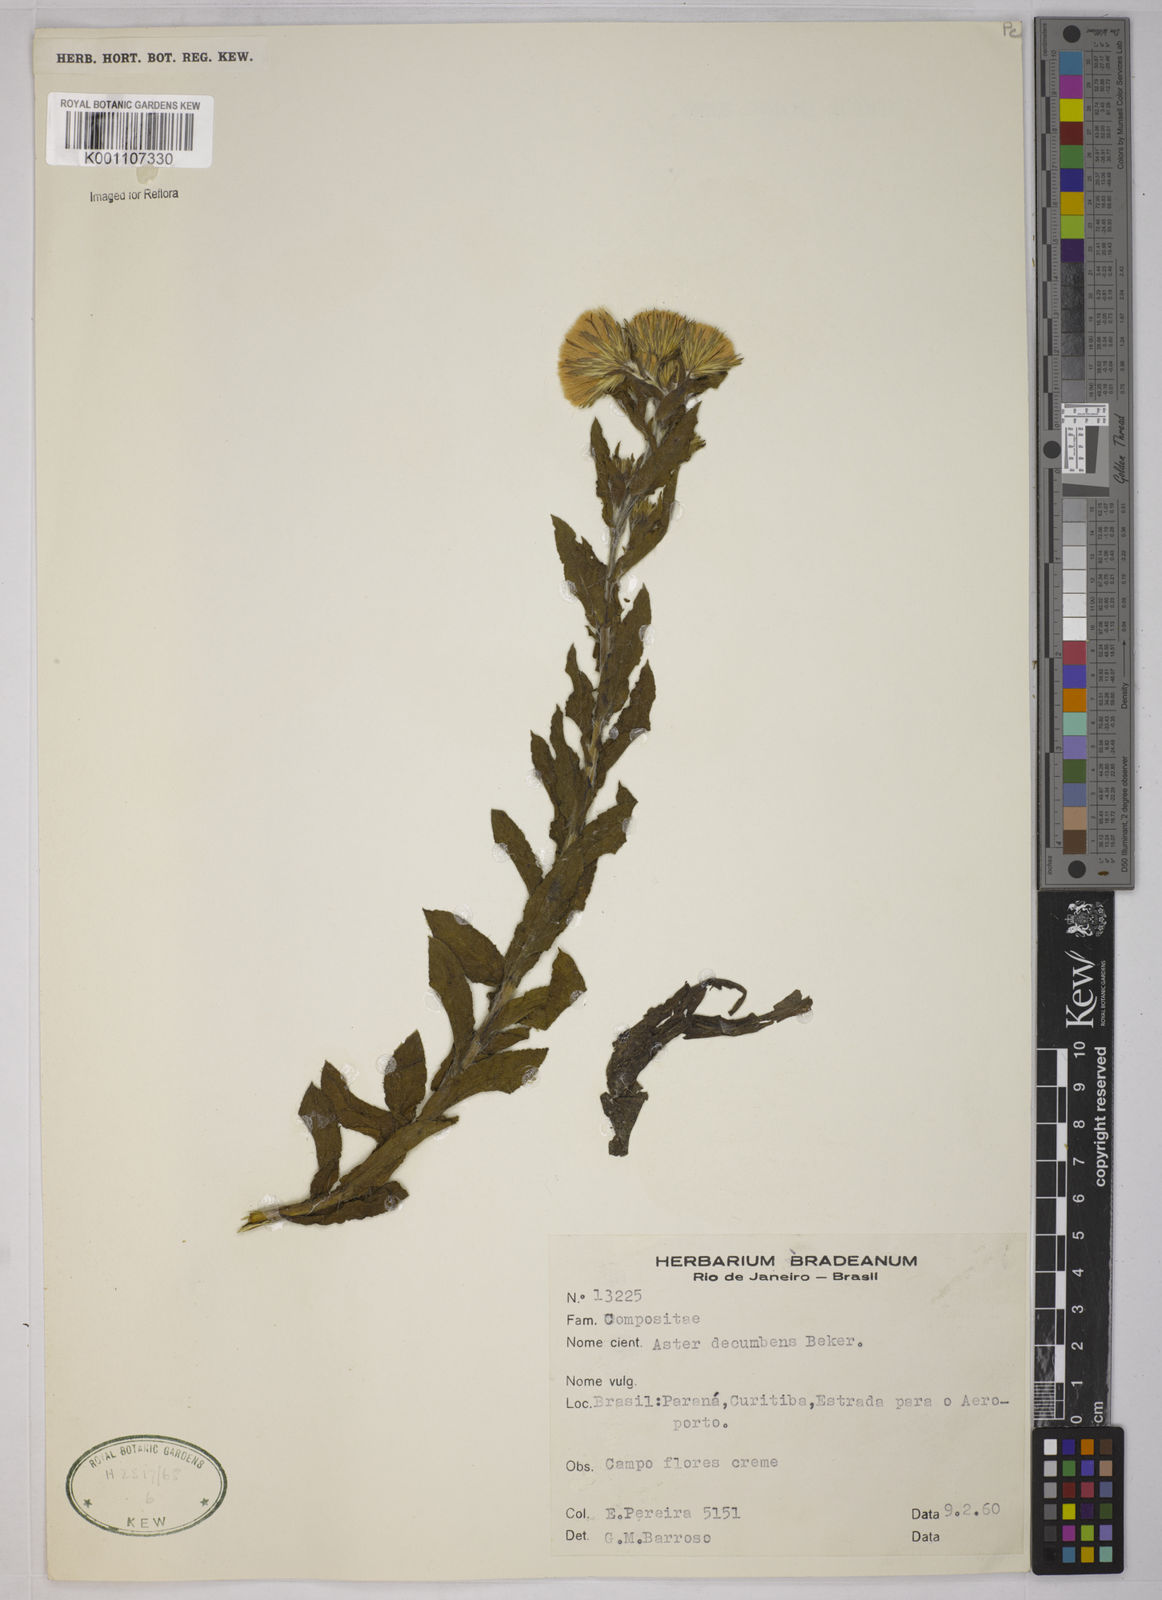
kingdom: Plantae
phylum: Tracheophyta
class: Magnoliopsida
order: Asterales
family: Asteraceae
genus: Noticastrum
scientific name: Noticastrum decumbens
